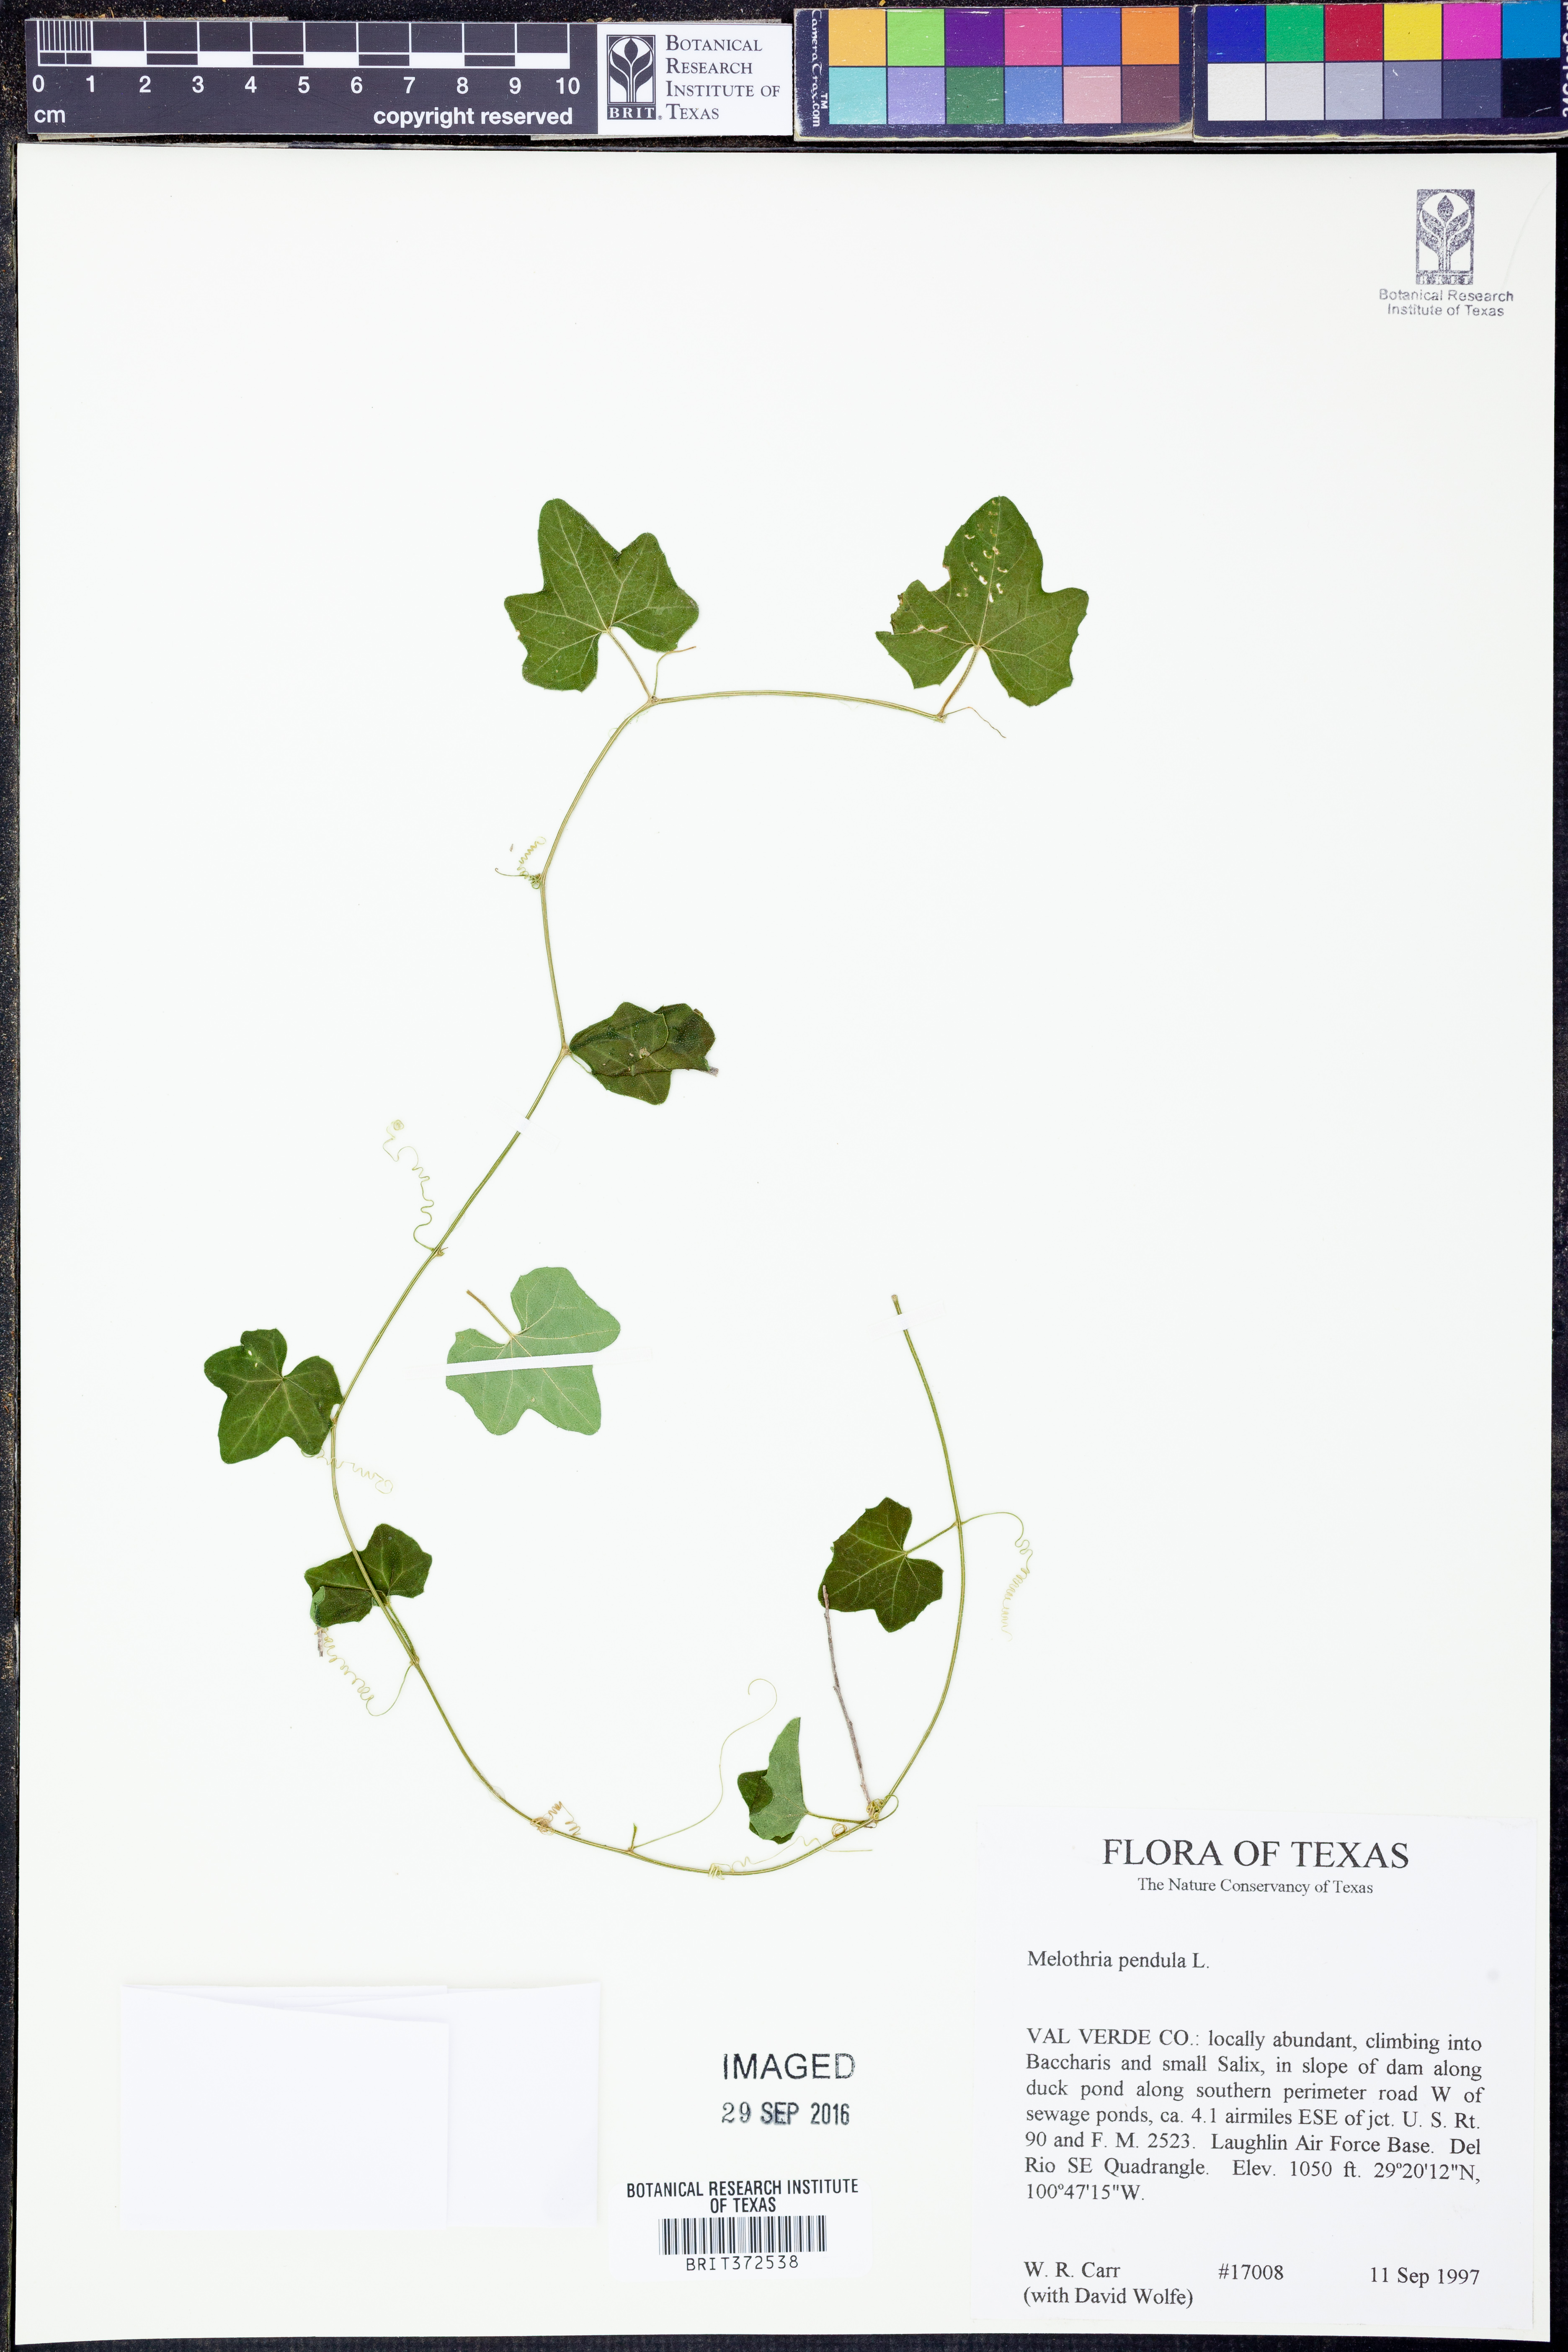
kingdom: Plantae
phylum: Tracheophyta
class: Magnoliopsida
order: Cucurbitales
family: Cucurbitaceae
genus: Melothria
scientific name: Melothria pendula
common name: Creeping-cucumber
